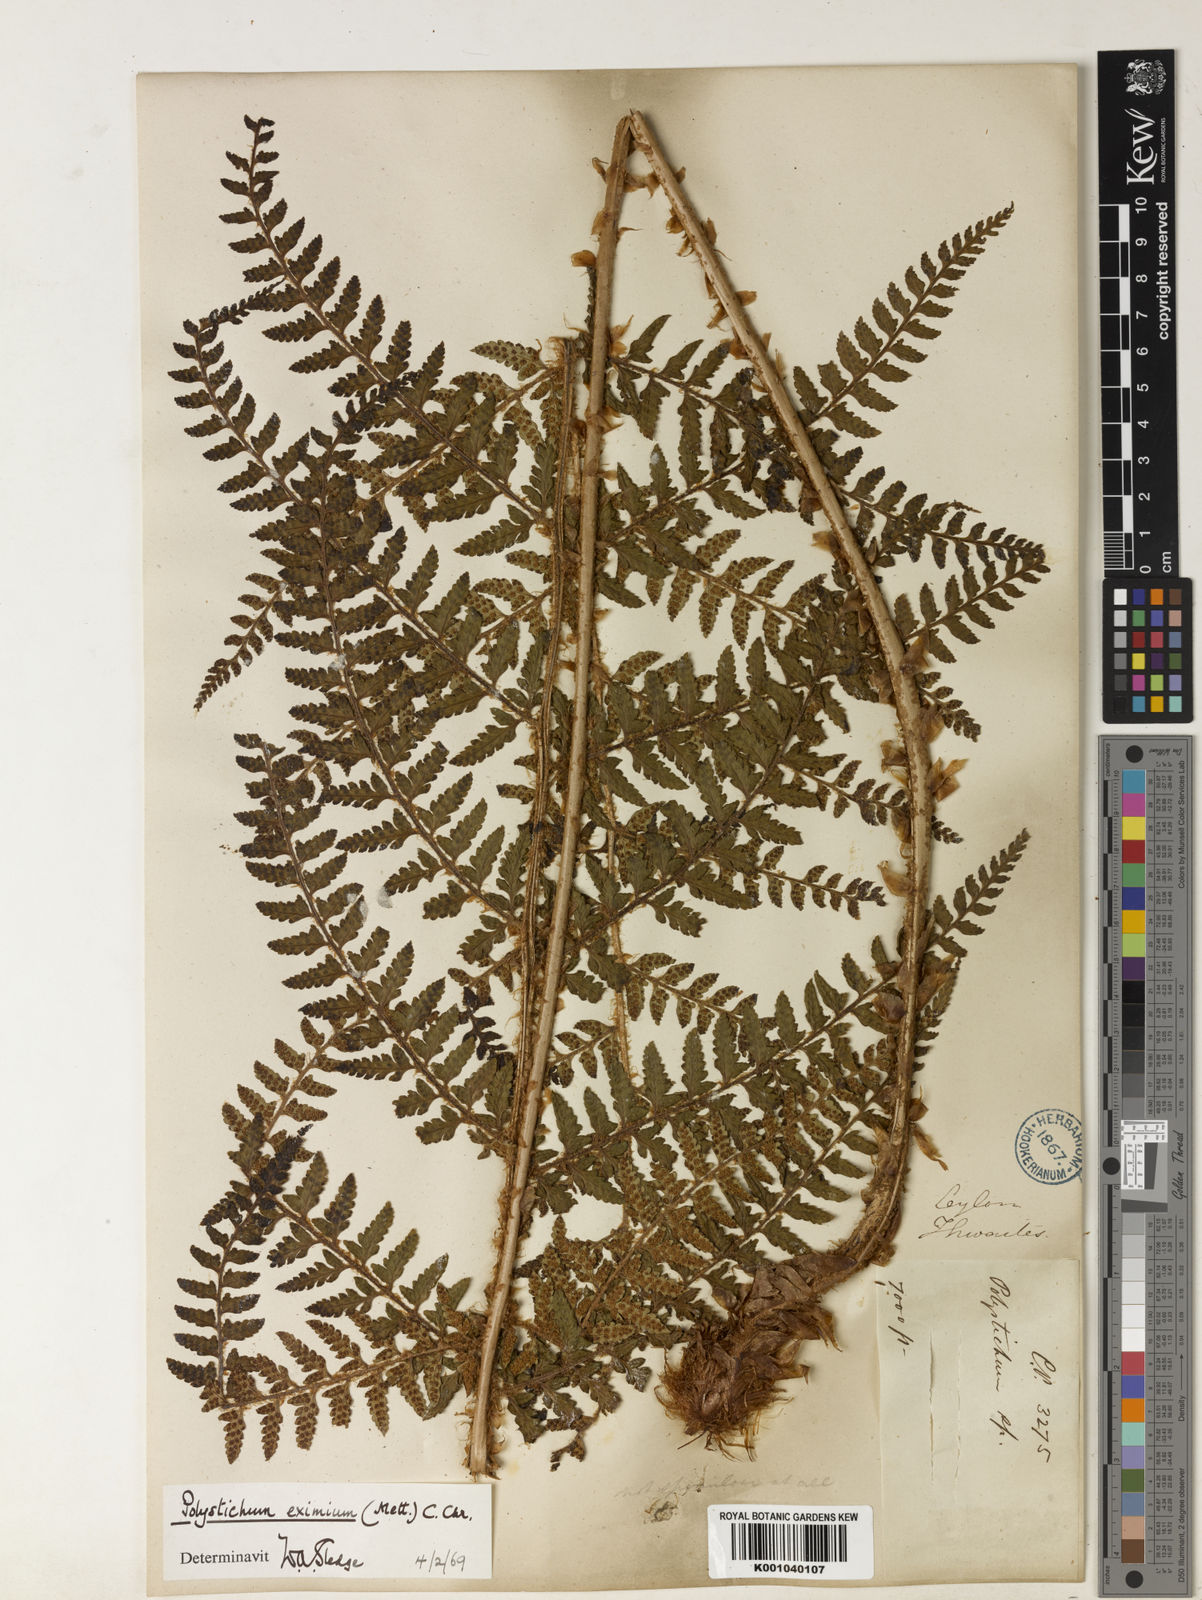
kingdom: Plantae
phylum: Tracheophyta
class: Polypodiopsida
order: Polypodiales
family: Dryopteridaceae
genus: Polystichum
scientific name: Polystichum anomalum
